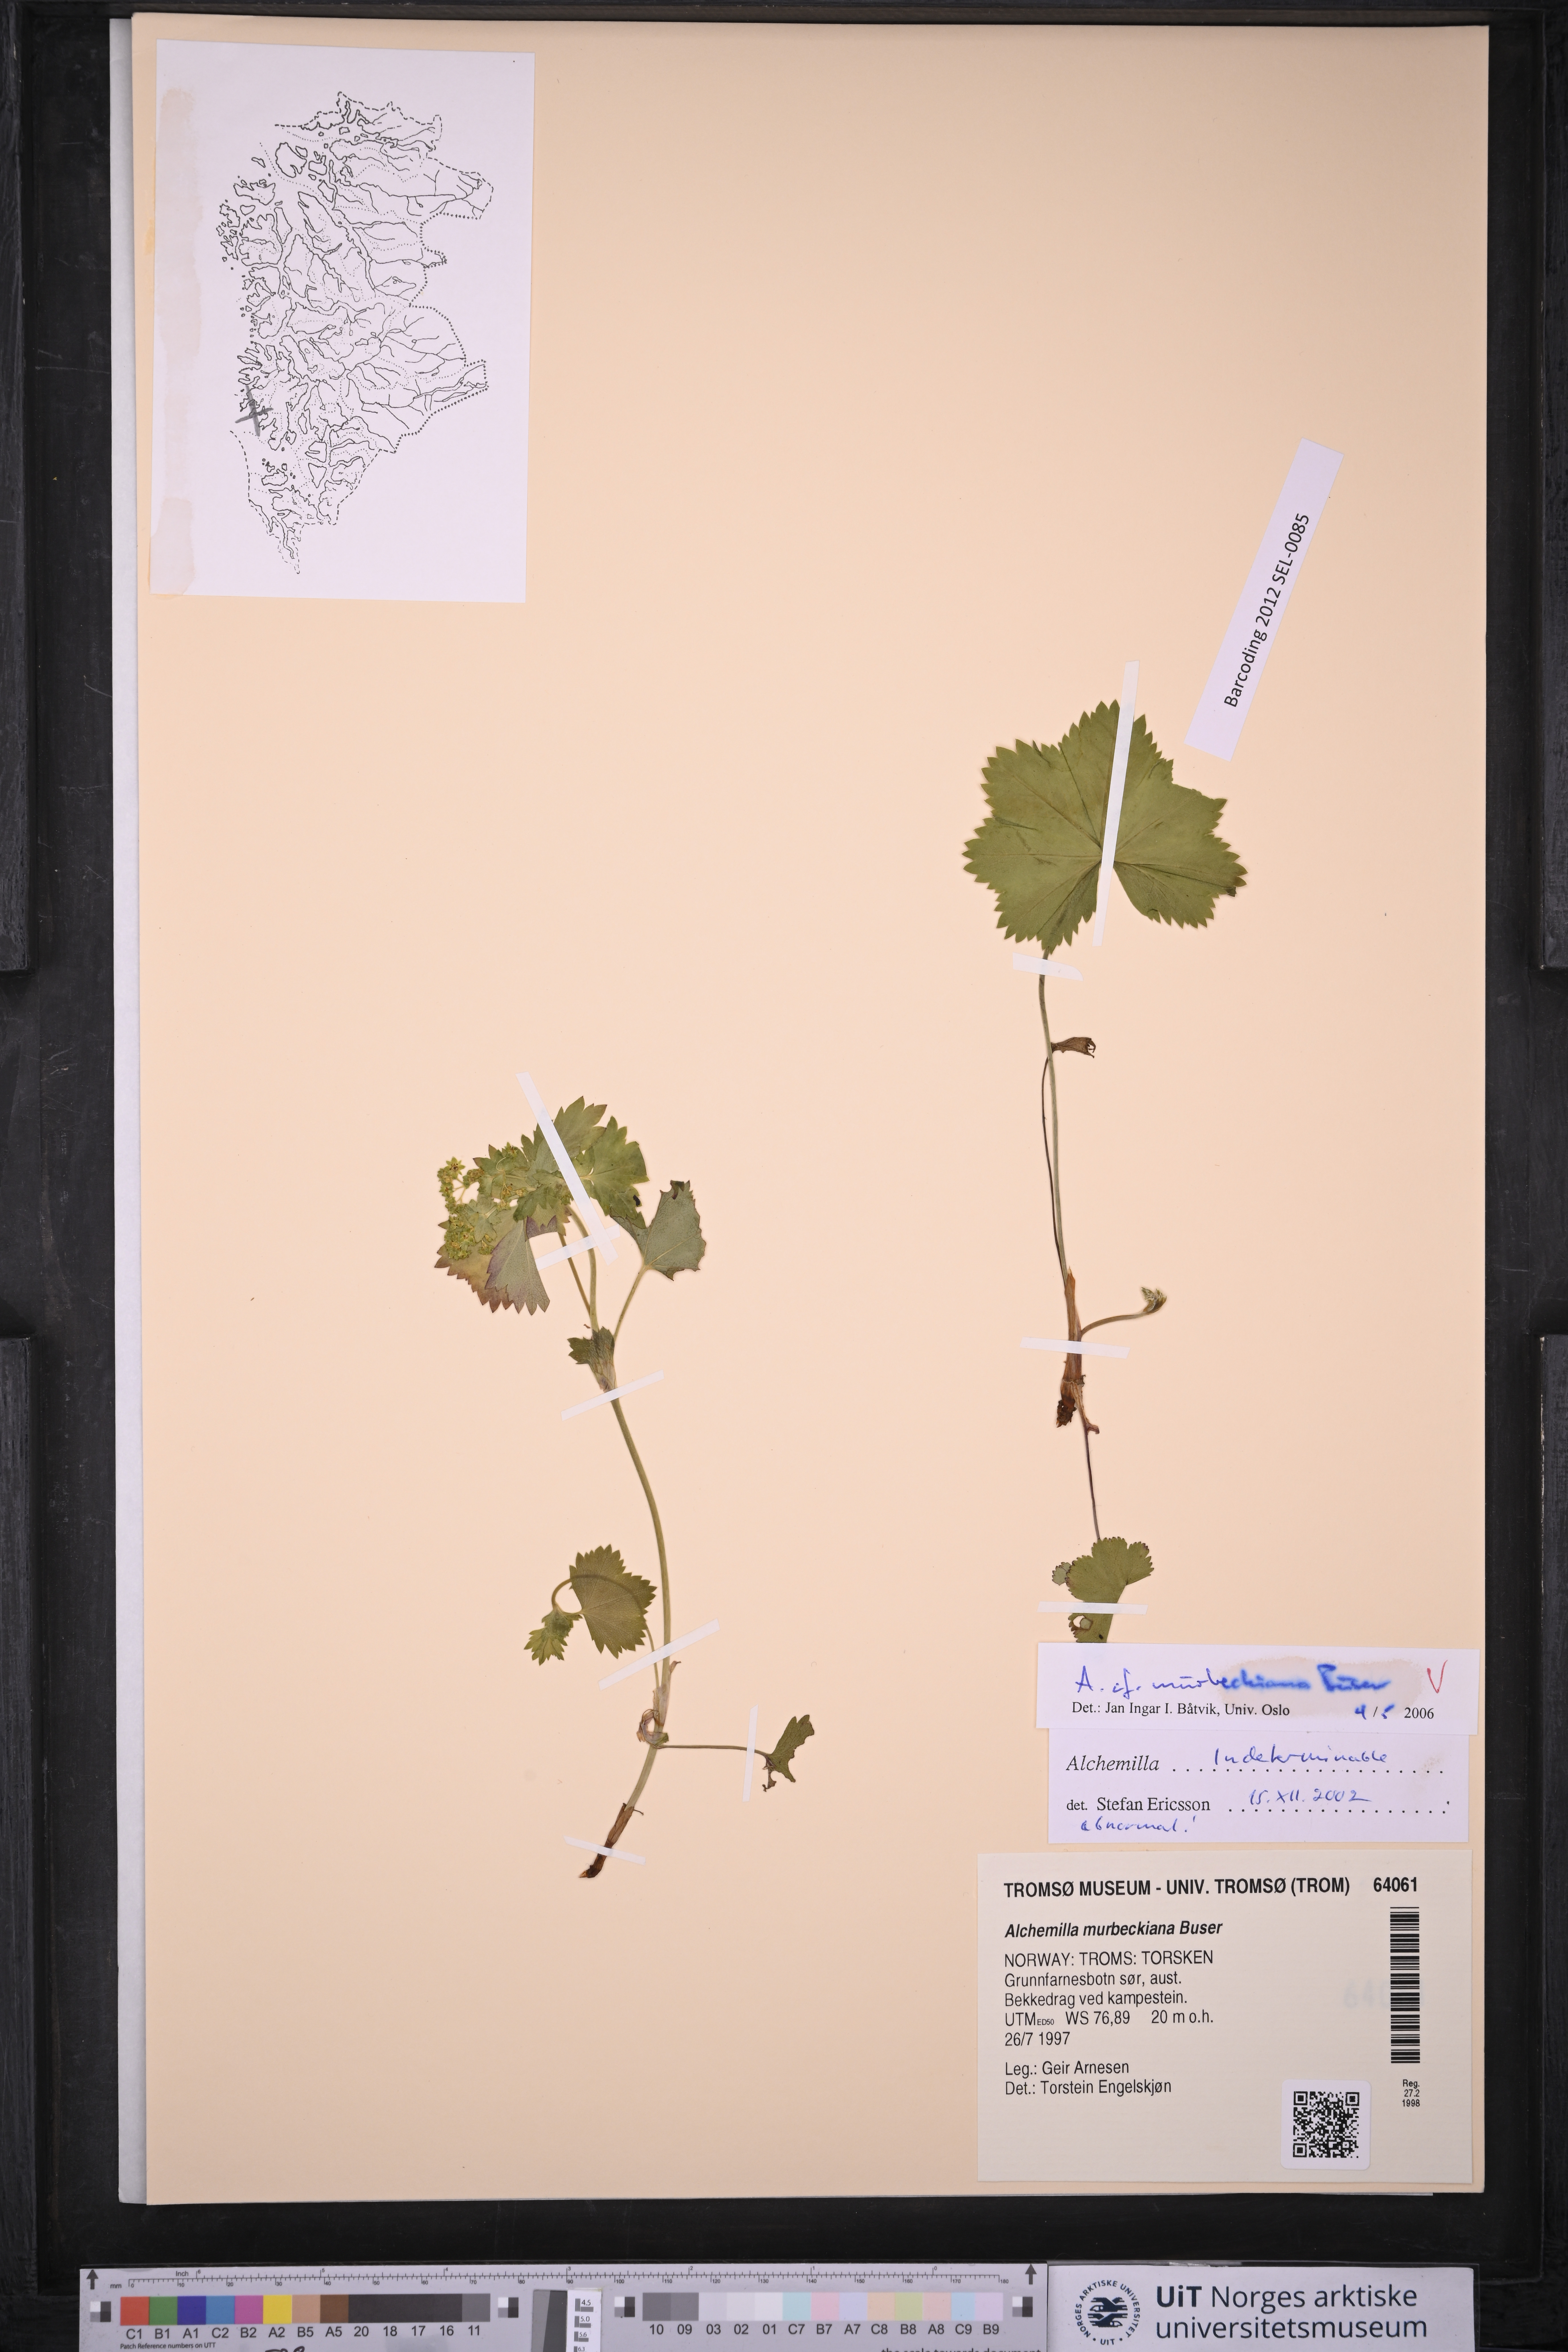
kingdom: Plantae
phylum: Tracheophyta
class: Magnoliopsida
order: Rosales
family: Rosaceae
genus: Alchemilla
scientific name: Alchemilla murbeckiana
